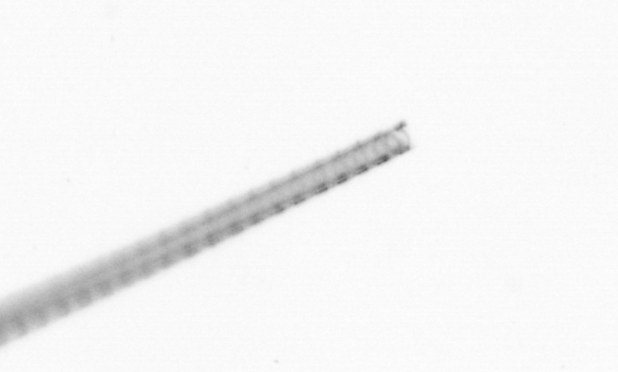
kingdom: Chromista
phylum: Ochrophyta
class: Bacillariophyceae
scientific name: Bacillariophyceae
